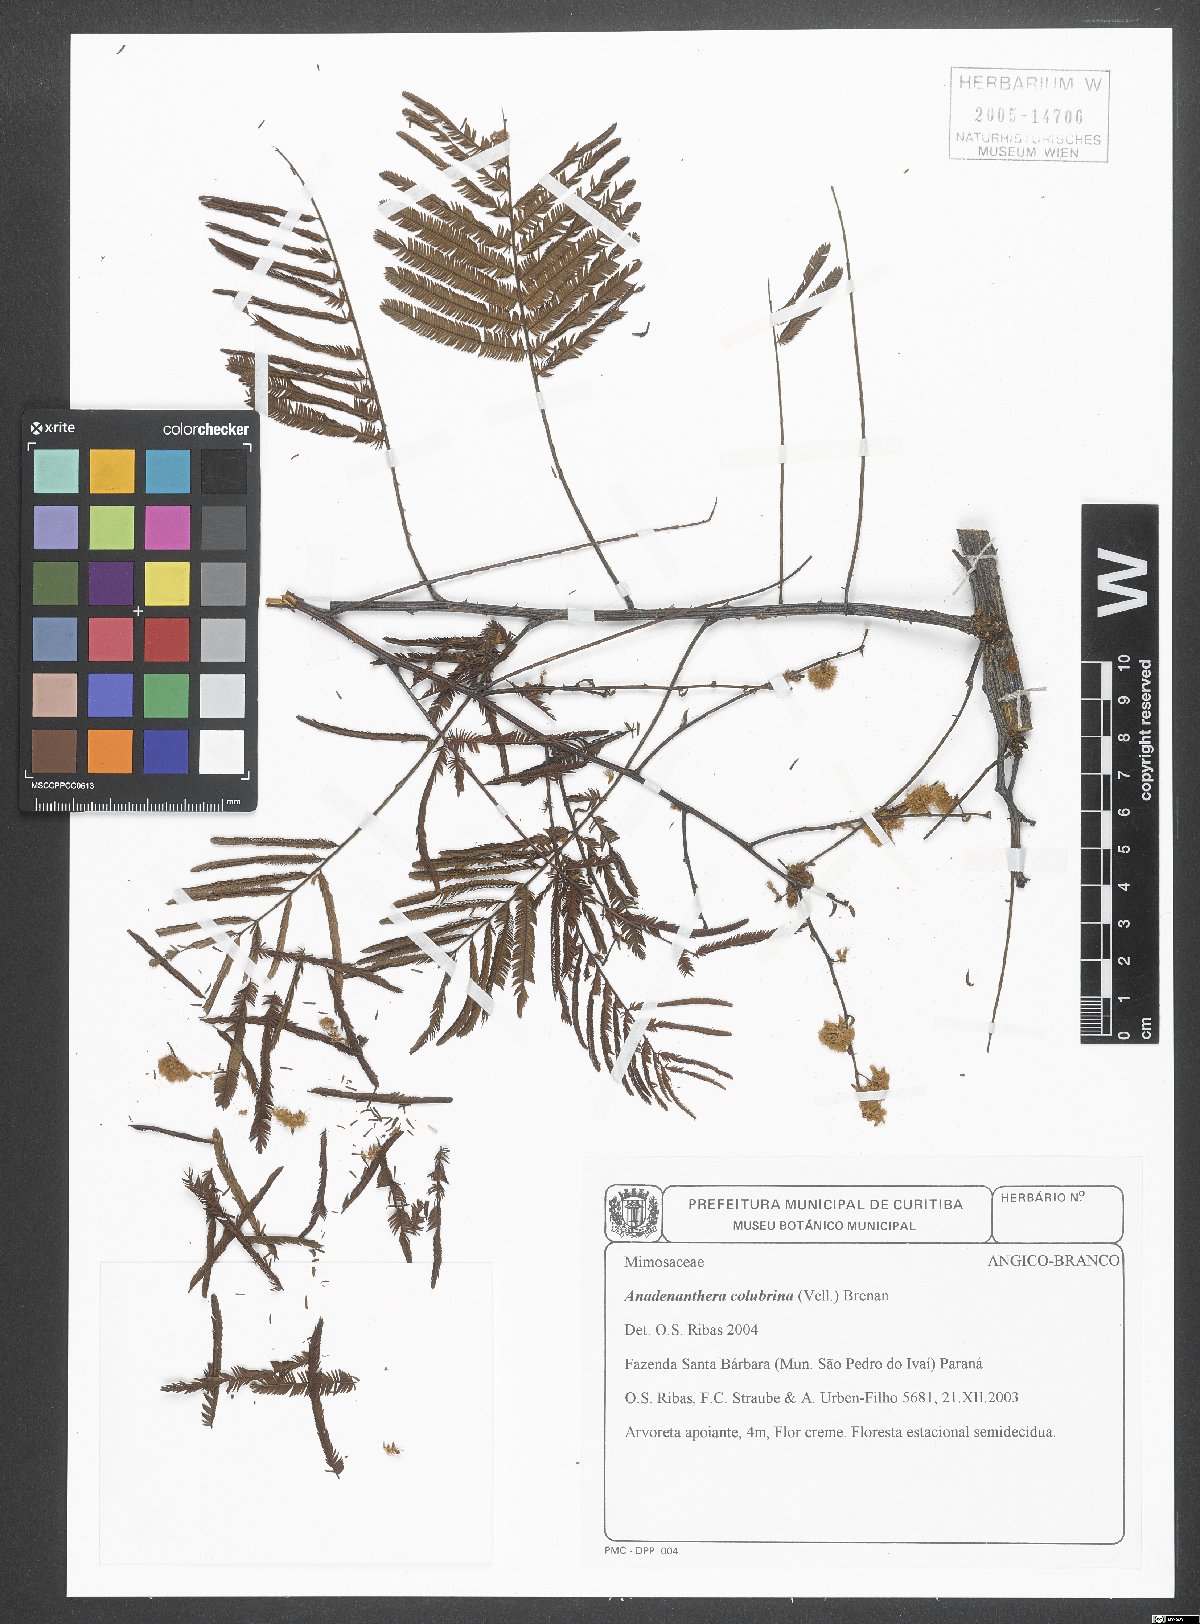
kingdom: Plantae
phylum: Tracheophyta
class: Magnoliopsida
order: Fabales
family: Fabaceae
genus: Anadenanthera
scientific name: Anadenanthera colubrina
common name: Curupay
